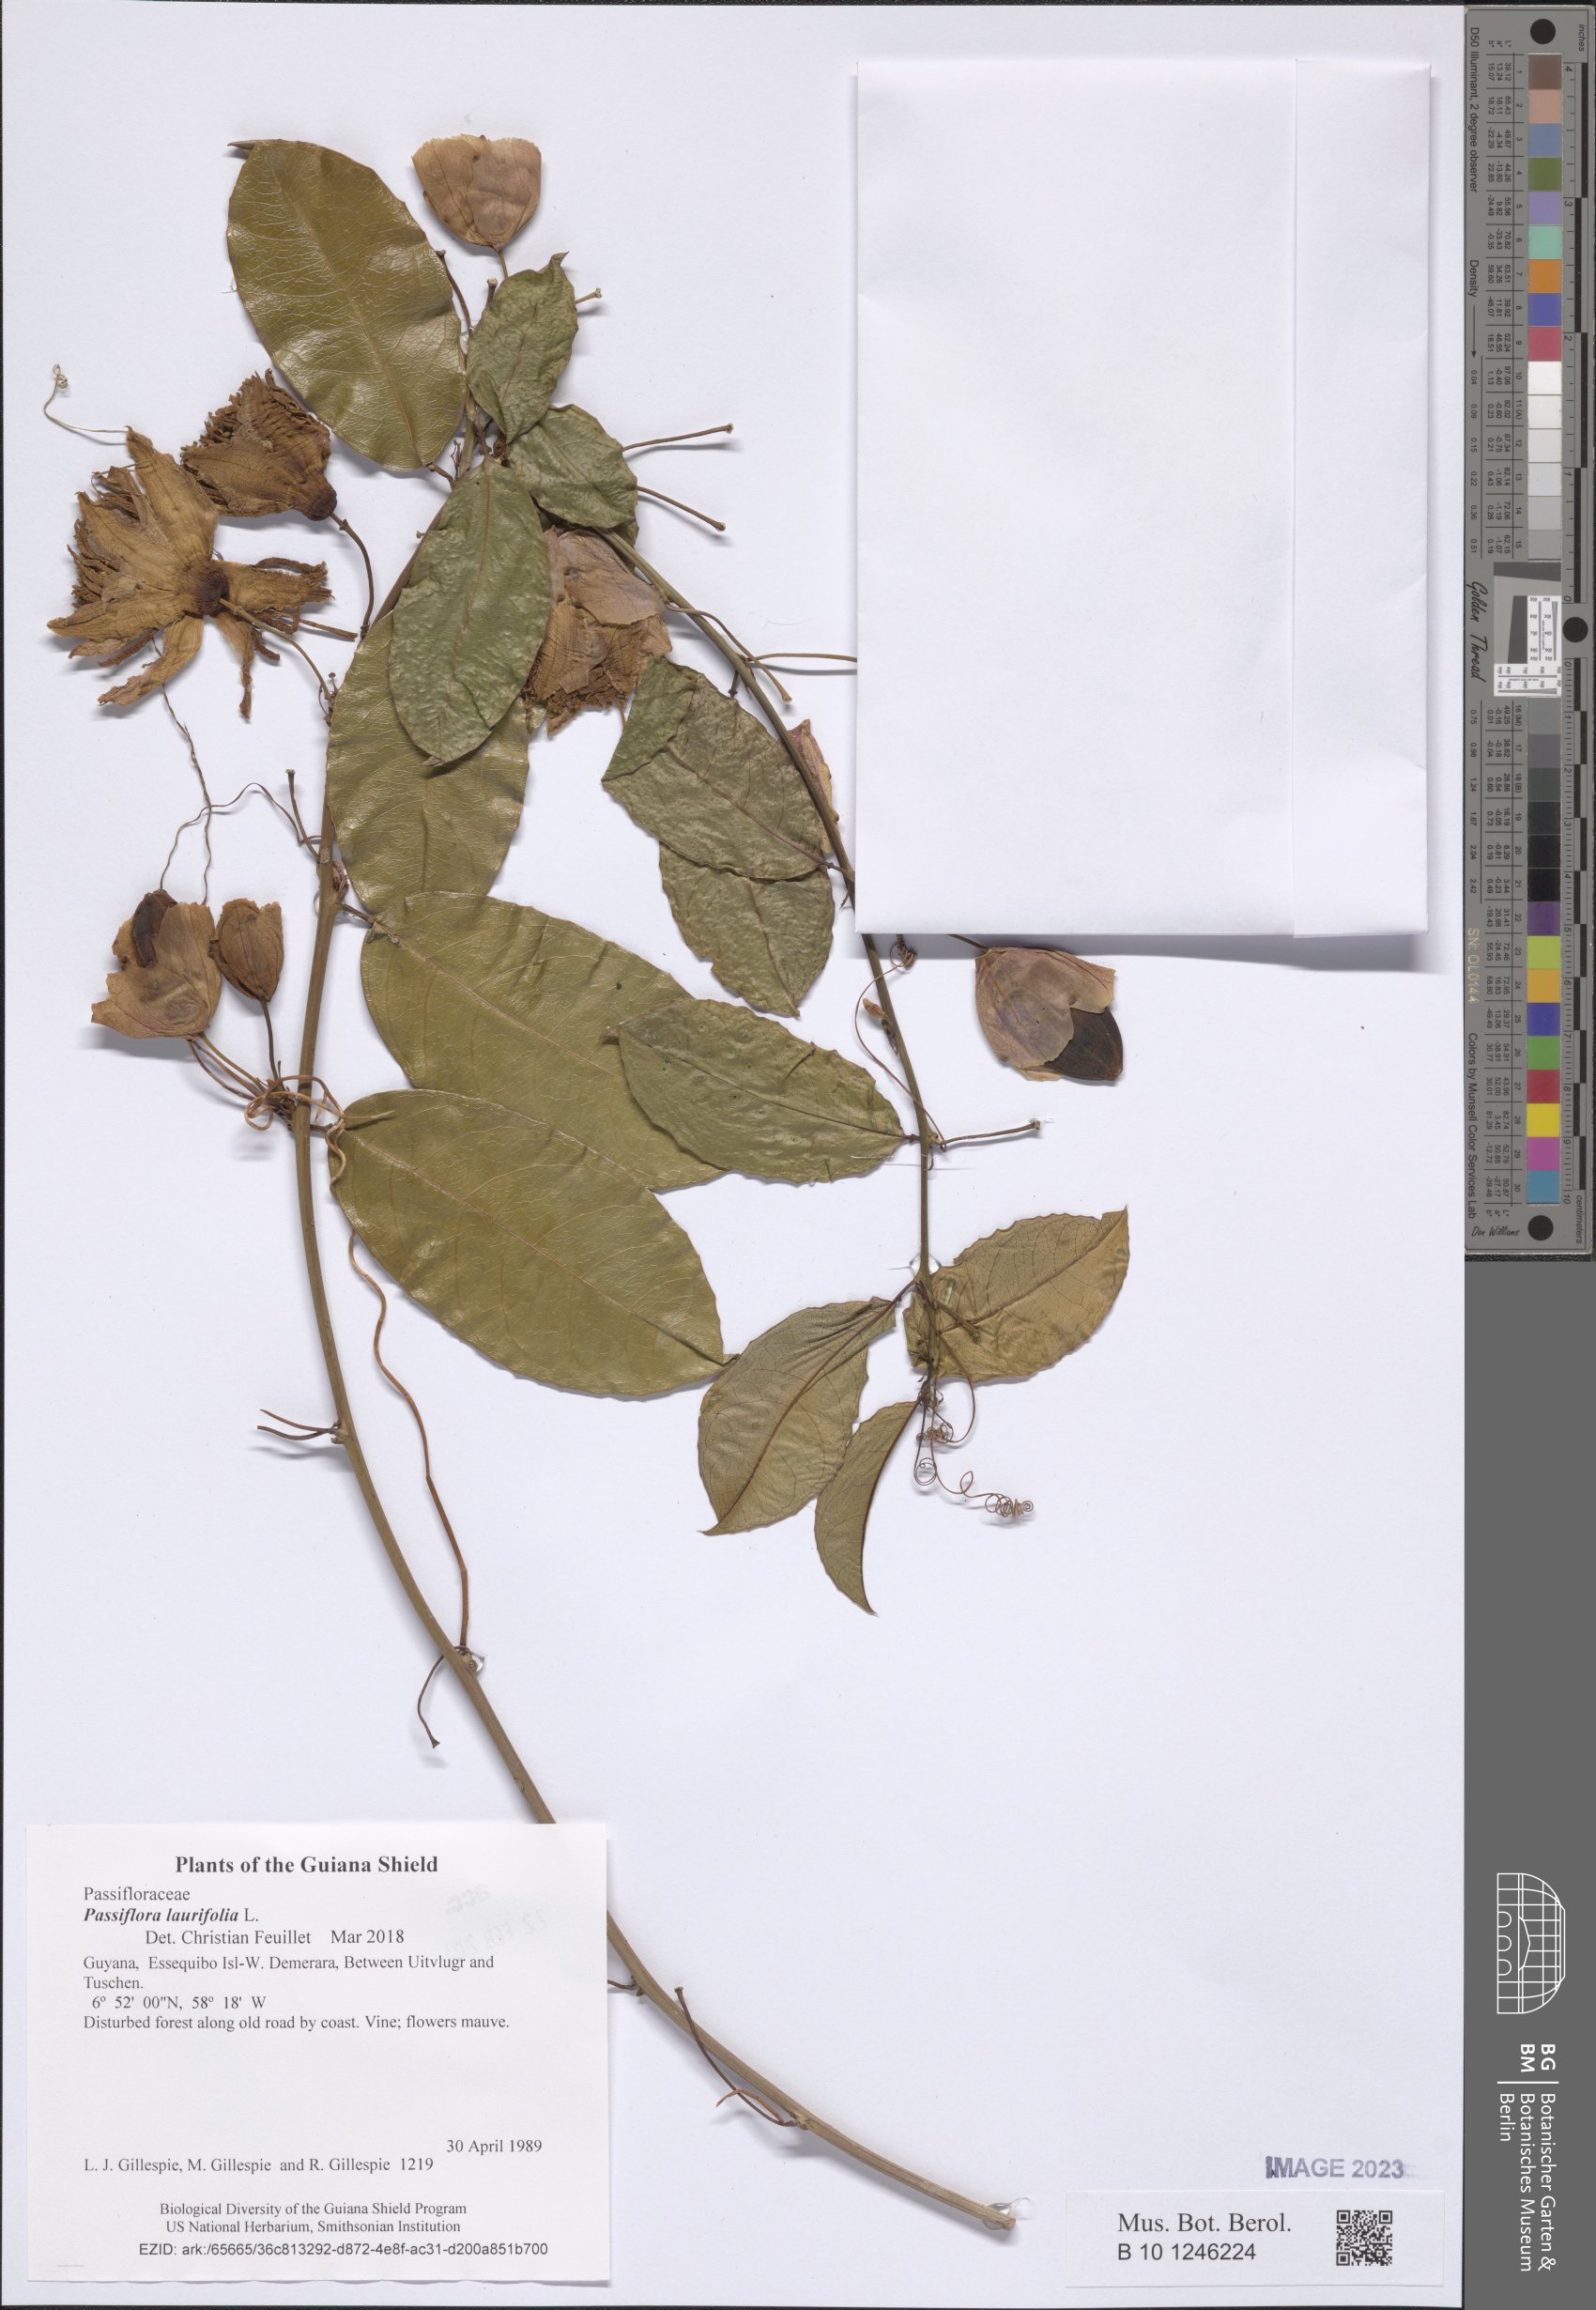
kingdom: Plantae
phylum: Tracheophyta
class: Magnoliopsida
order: Malpighiales
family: Passifloraceae
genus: Passiflora
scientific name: Passiflora laurifolia
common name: Bell apple
